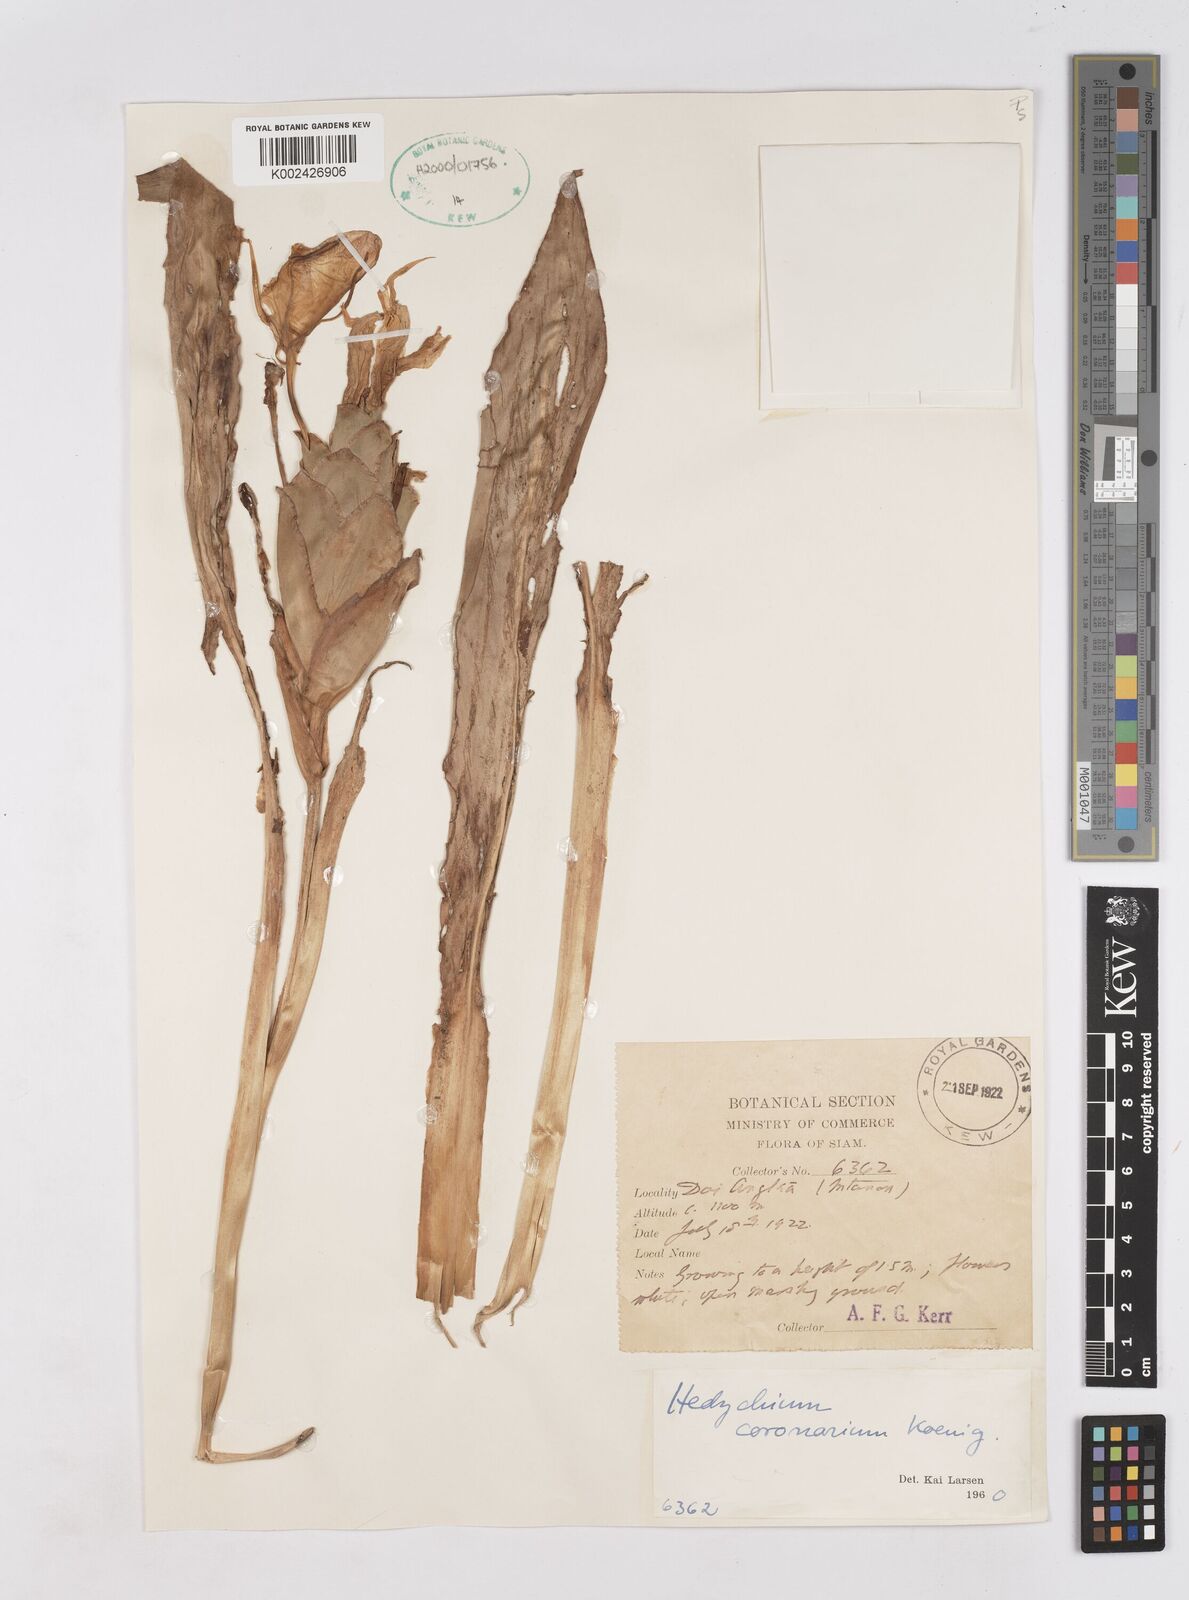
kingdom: Plantae
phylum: Tracheophyta
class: Liliopsida
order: Zingiberales
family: Zingiberaceae
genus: Hedychium
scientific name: Hedychium coronarium
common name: White garland-lily
